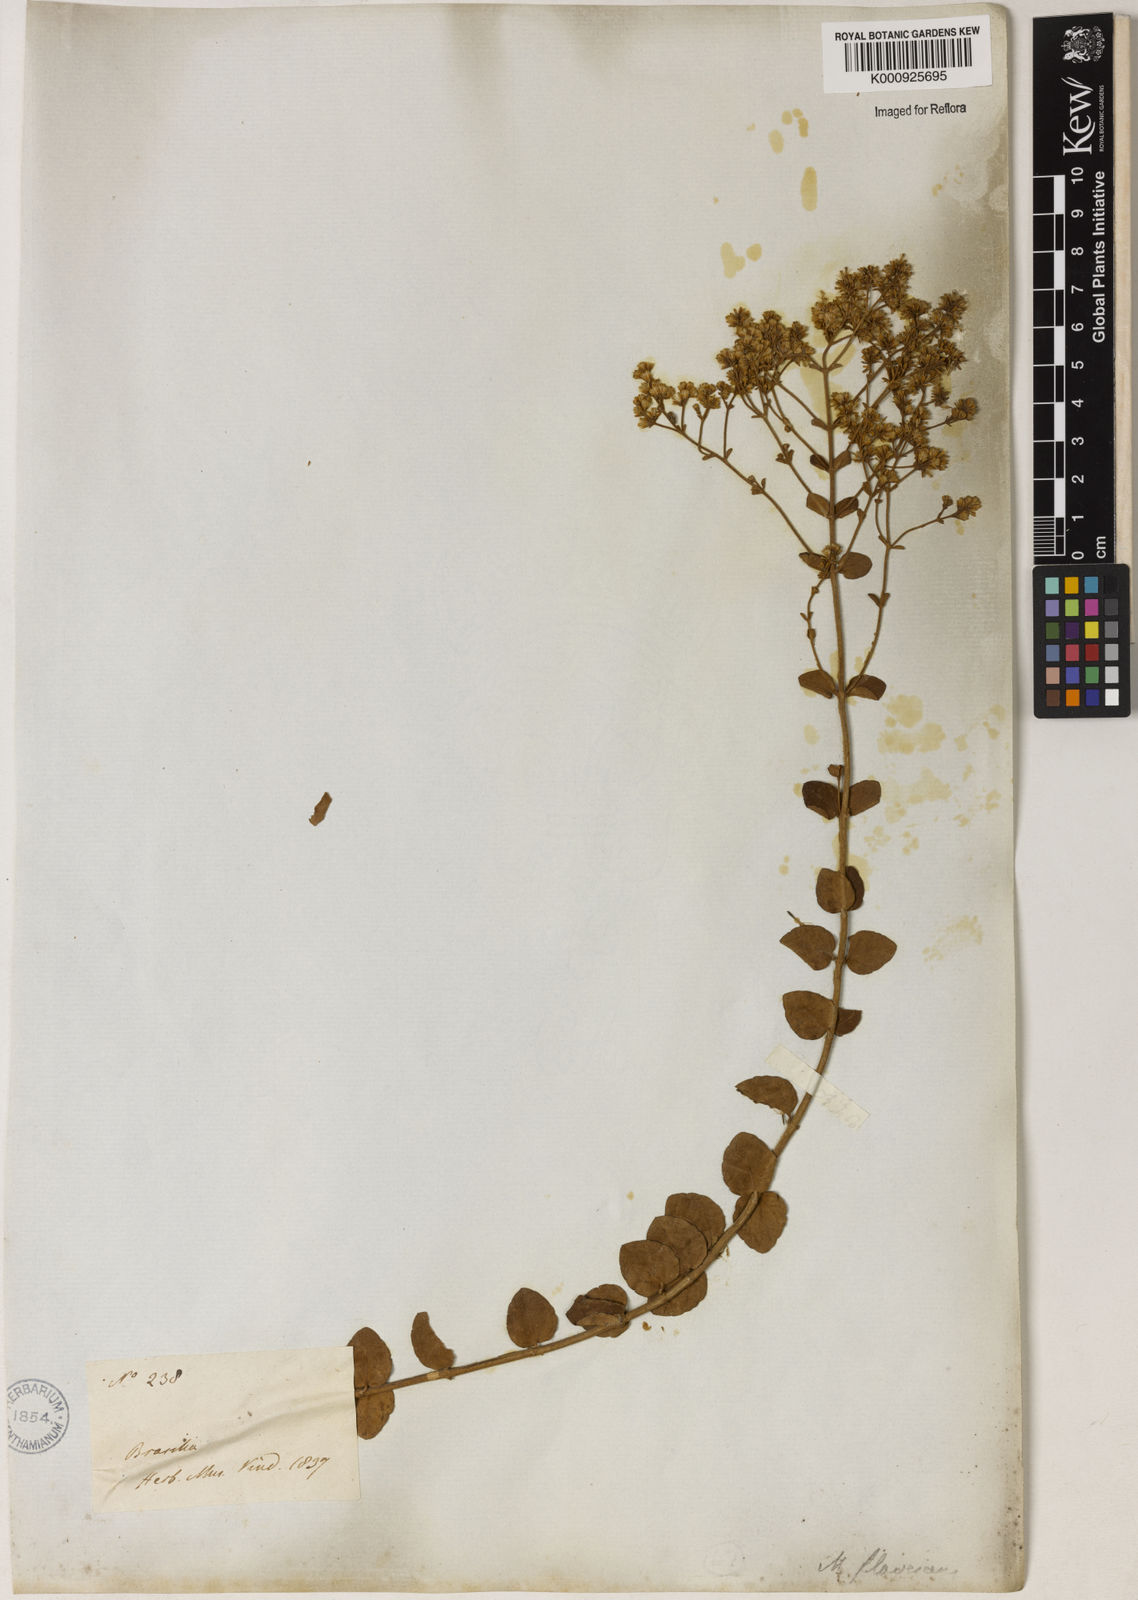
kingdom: Plantae
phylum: Tracheophyta
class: Magnoliopsida
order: Asterales
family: Asteraceae
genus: Mikania
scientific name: Mikania nummularia
